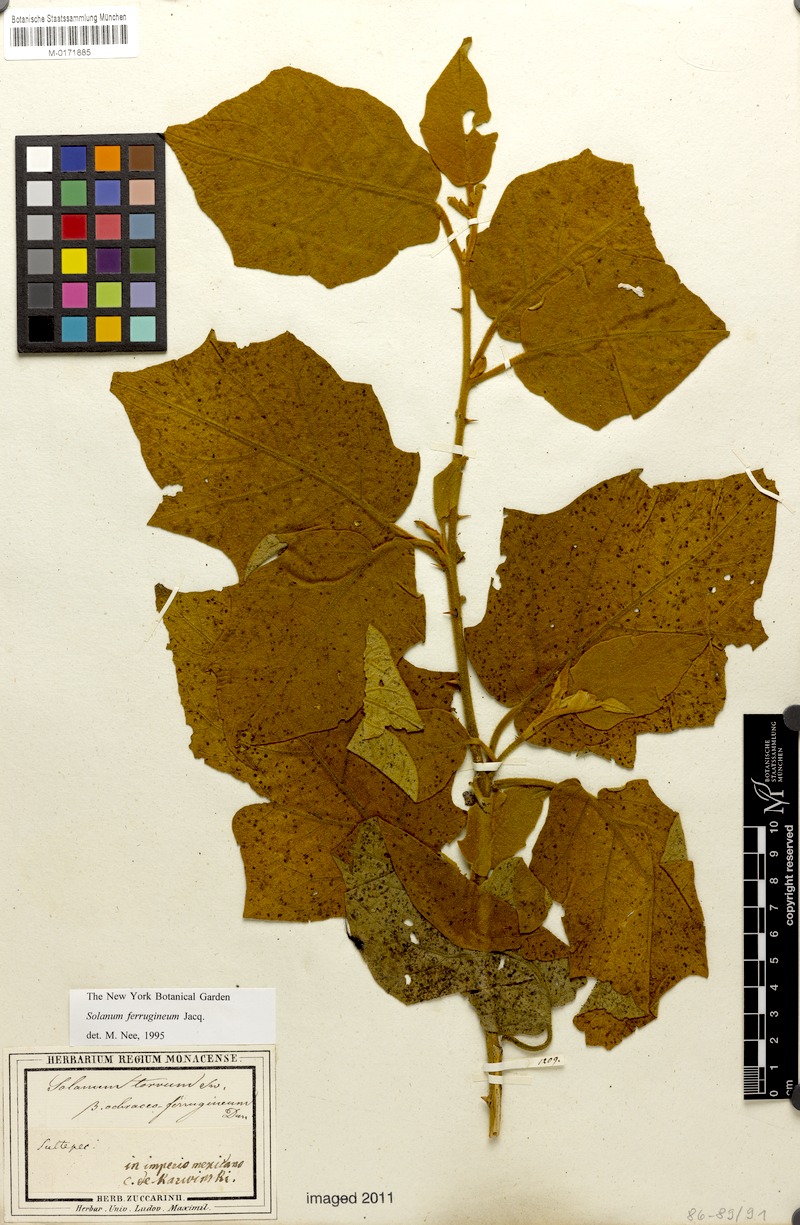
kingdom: Plantae
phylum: Tracheophyta
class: Magnoliopsida
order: Solanales
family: Solanaceae
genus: Solanum
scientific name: Solanum ferrugineum
